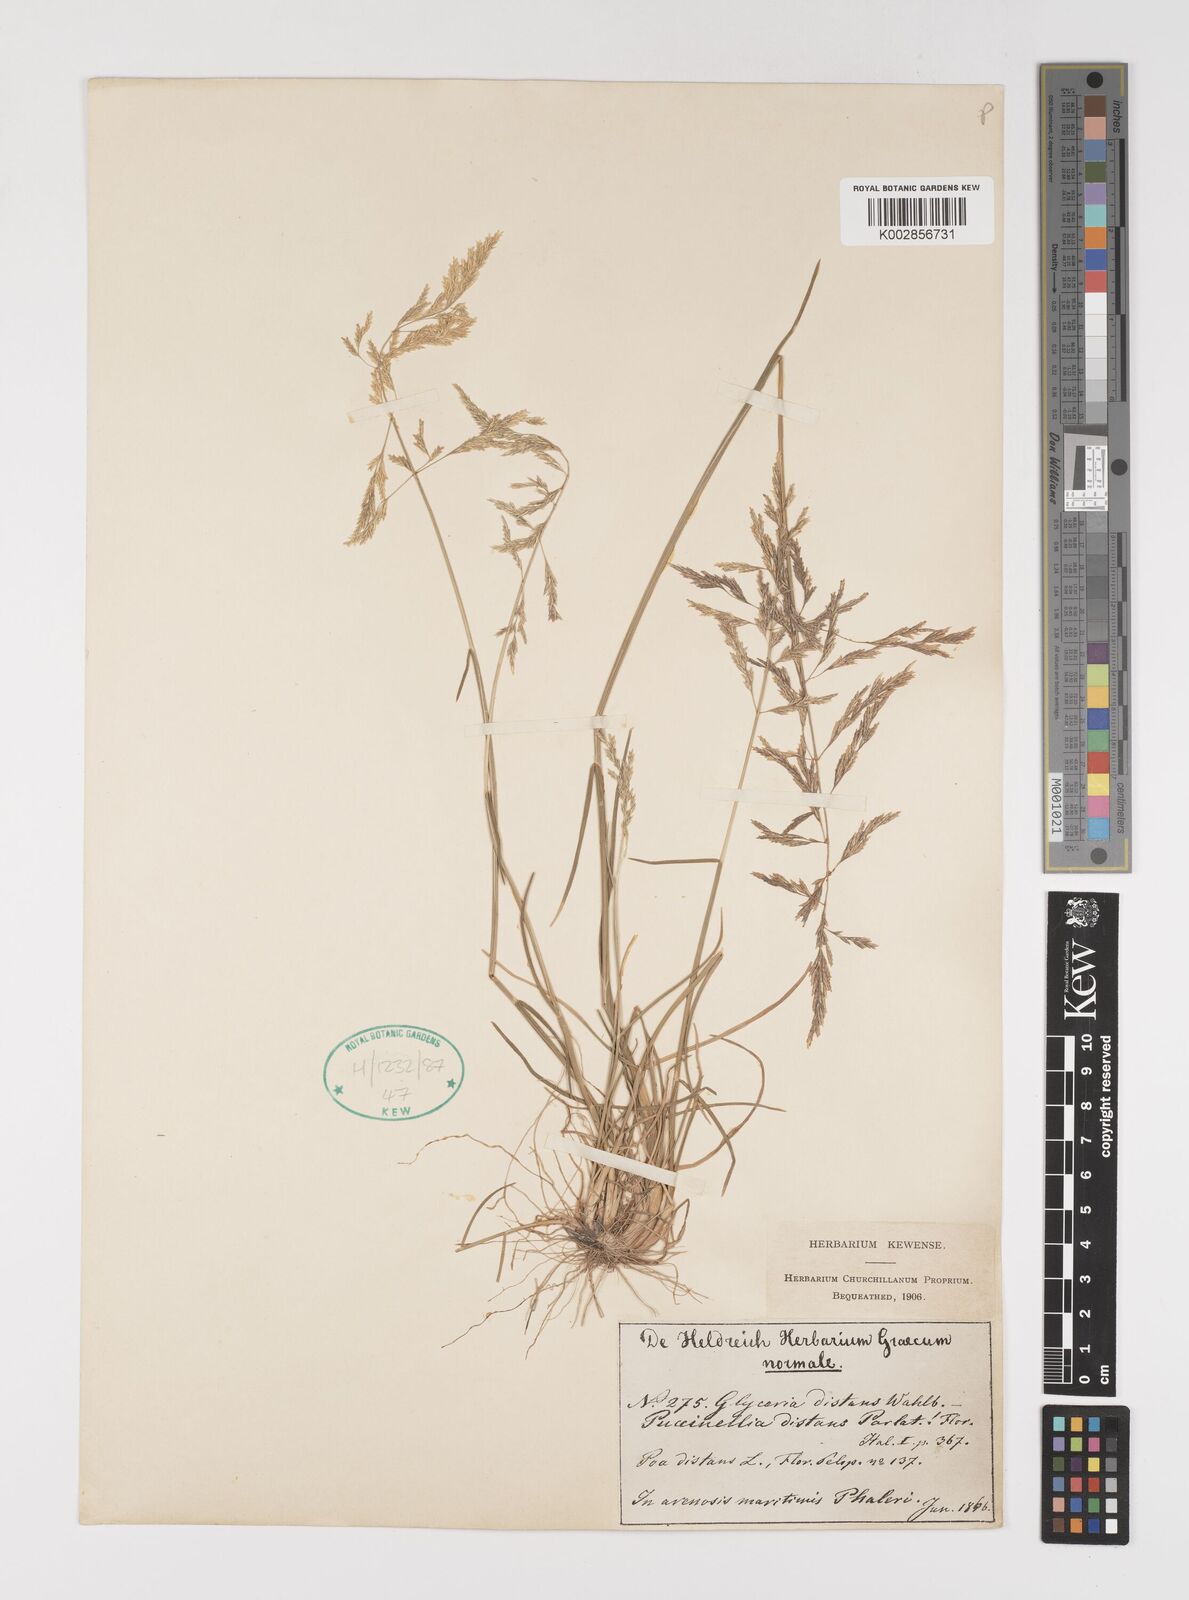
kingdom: Plantae
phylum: Tracheophyta
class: Liliopsida
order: Poales
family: Poaceae
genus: Puccinellia
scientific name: Puccinellia distans
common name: Weeping alkaligrass
